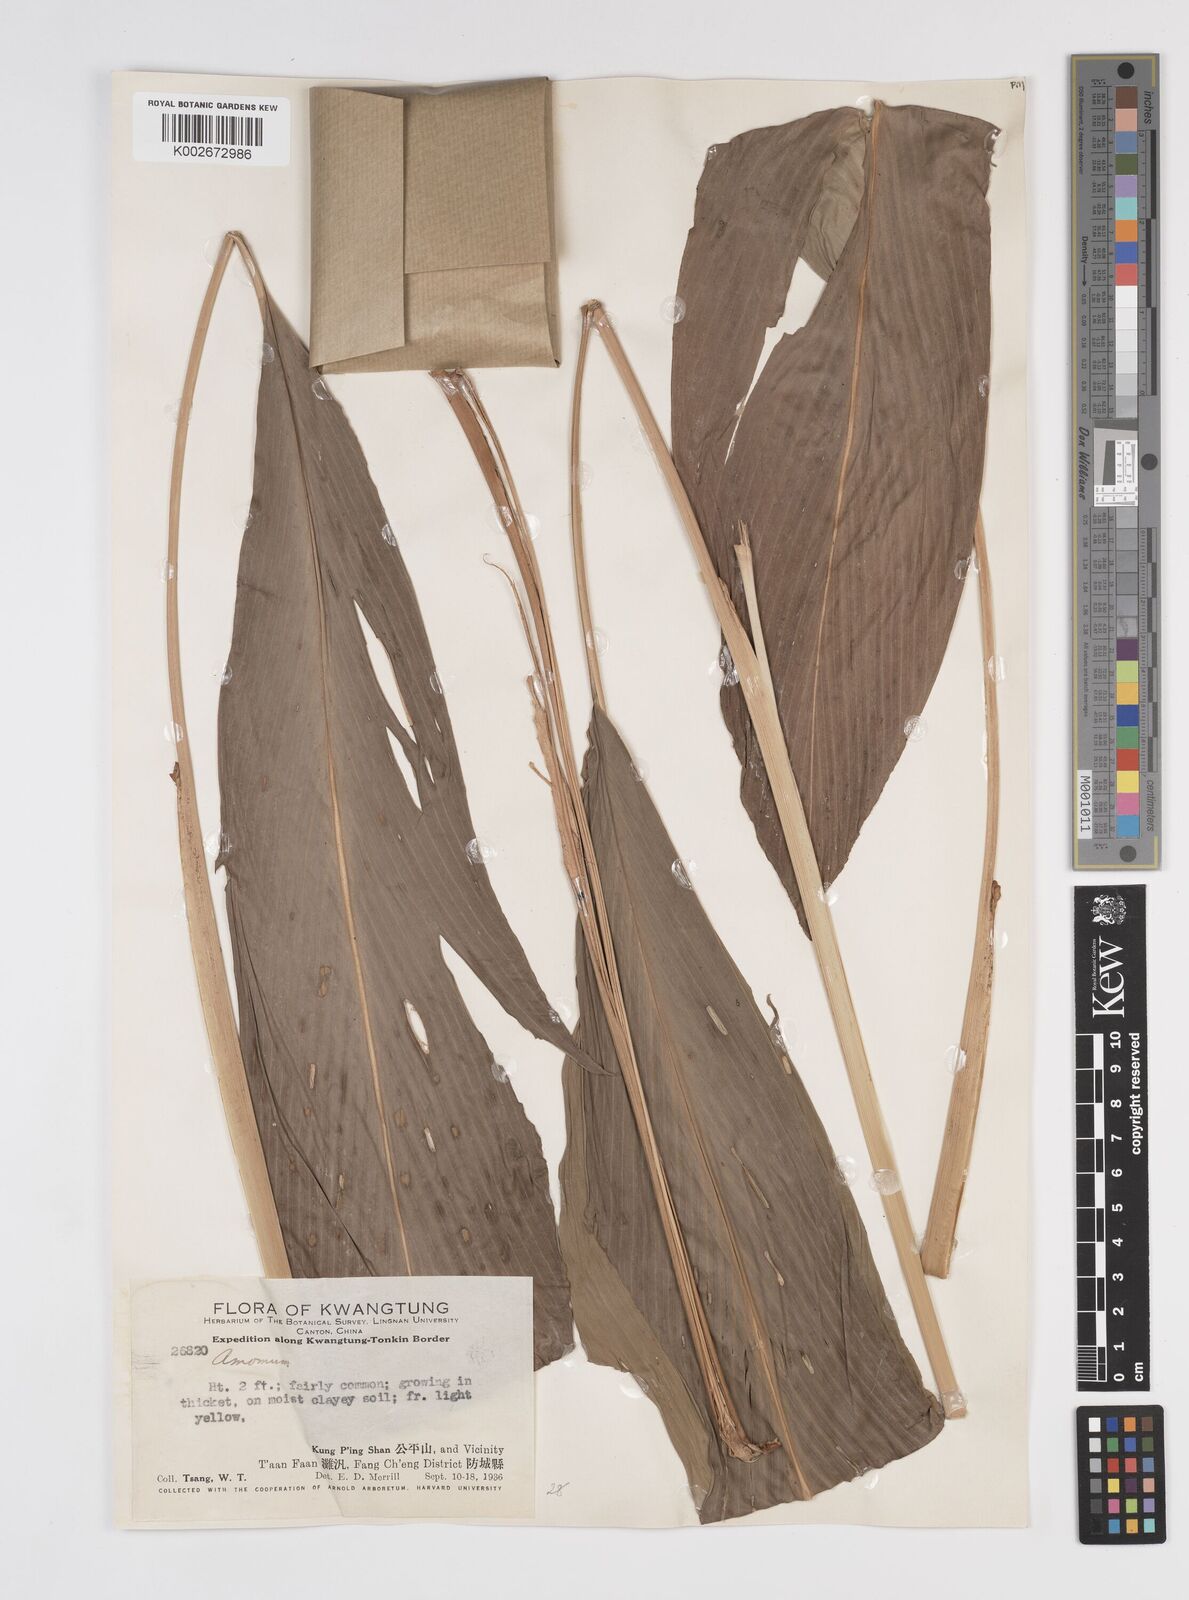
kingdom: Plantae
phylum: Tracheophyta
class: Liliopsida
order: Zingiberales
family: Zingiberaceae
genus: Amomum
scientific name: Amomum
